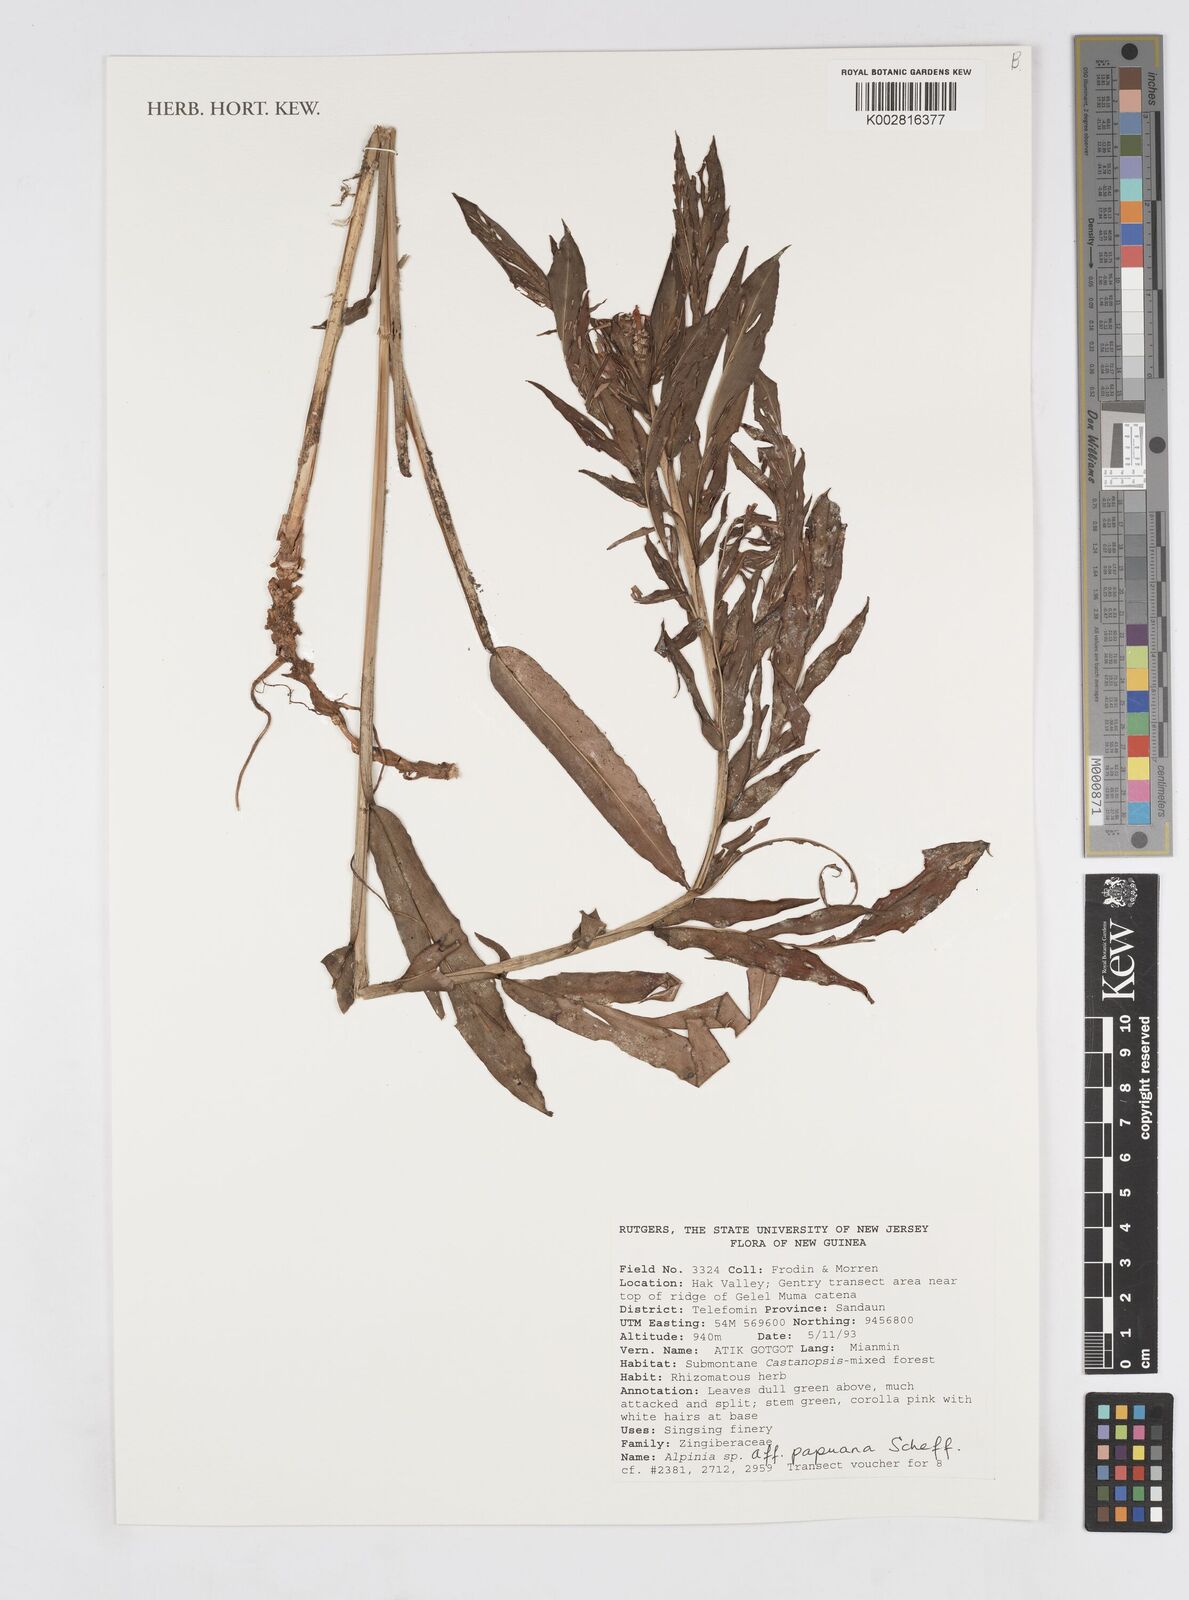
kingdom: Plantae
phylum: Tracheophyta
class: Liliopsida
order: Zingiberales
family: Zingiberaceae
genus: Alpinia
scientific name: Alpinia papuana
